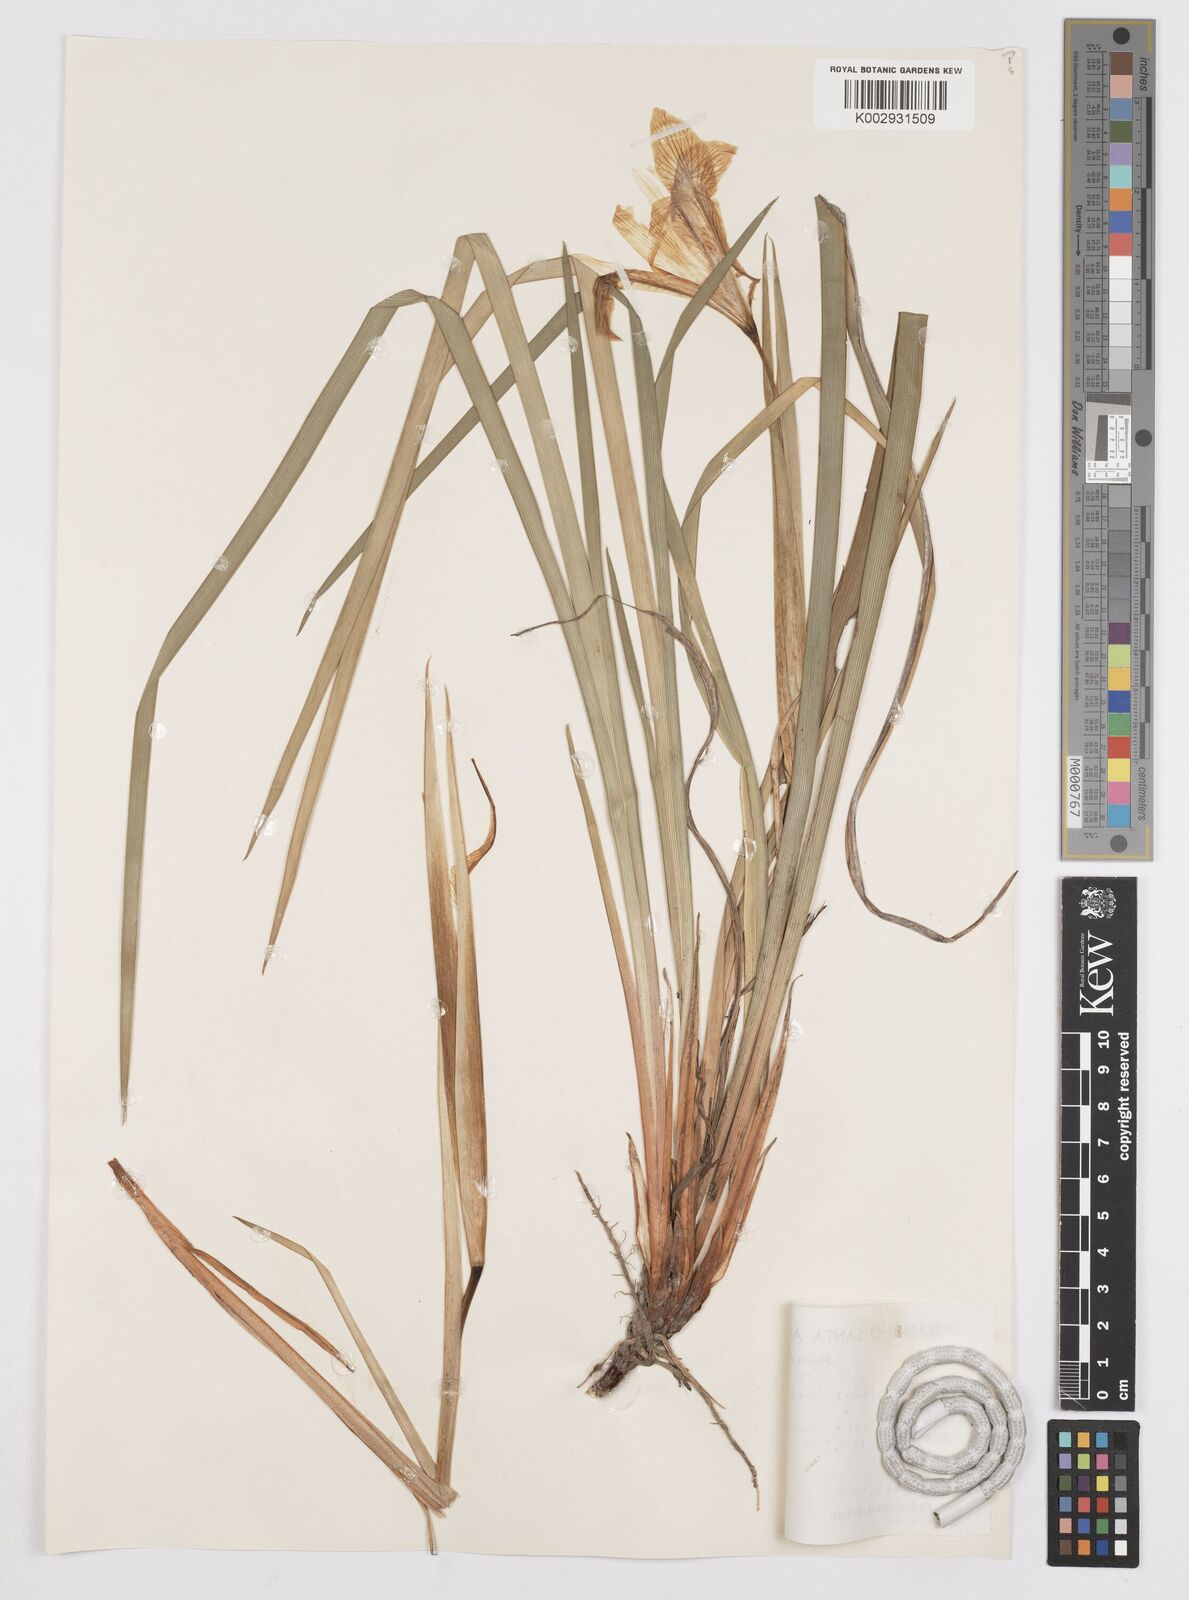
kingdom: Plantae
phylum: Tracheophyta
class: Liliopsida
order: Asparagales
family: Iridaceae
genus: Iris
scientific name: Iris chrysophylla
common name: Yellow-leaf iris
